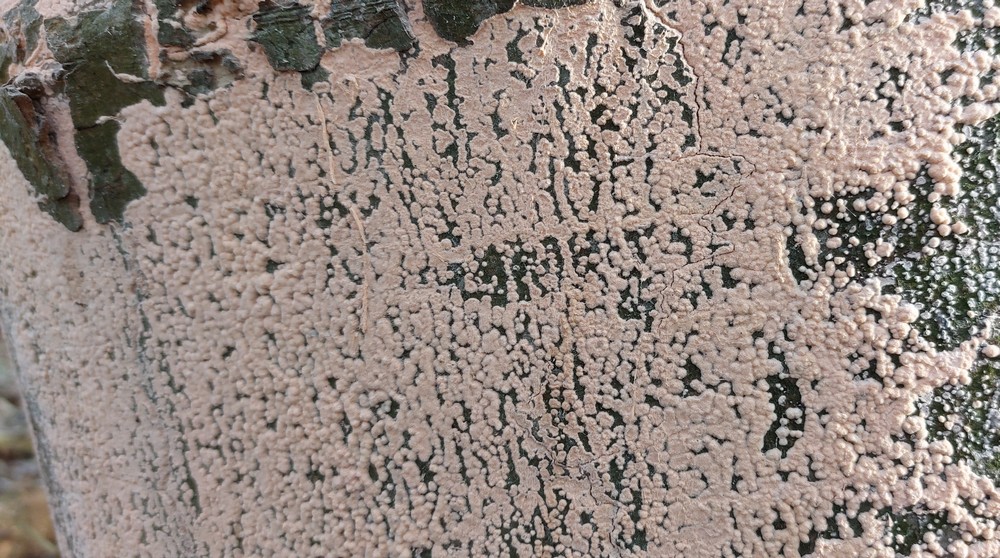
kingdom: Fungi
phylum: Ascomycota
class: Sordariomycetes
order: Hypocreales
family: Myrotheciomycetaceae
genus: Trichothecium
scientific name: Trichothecium roseum
